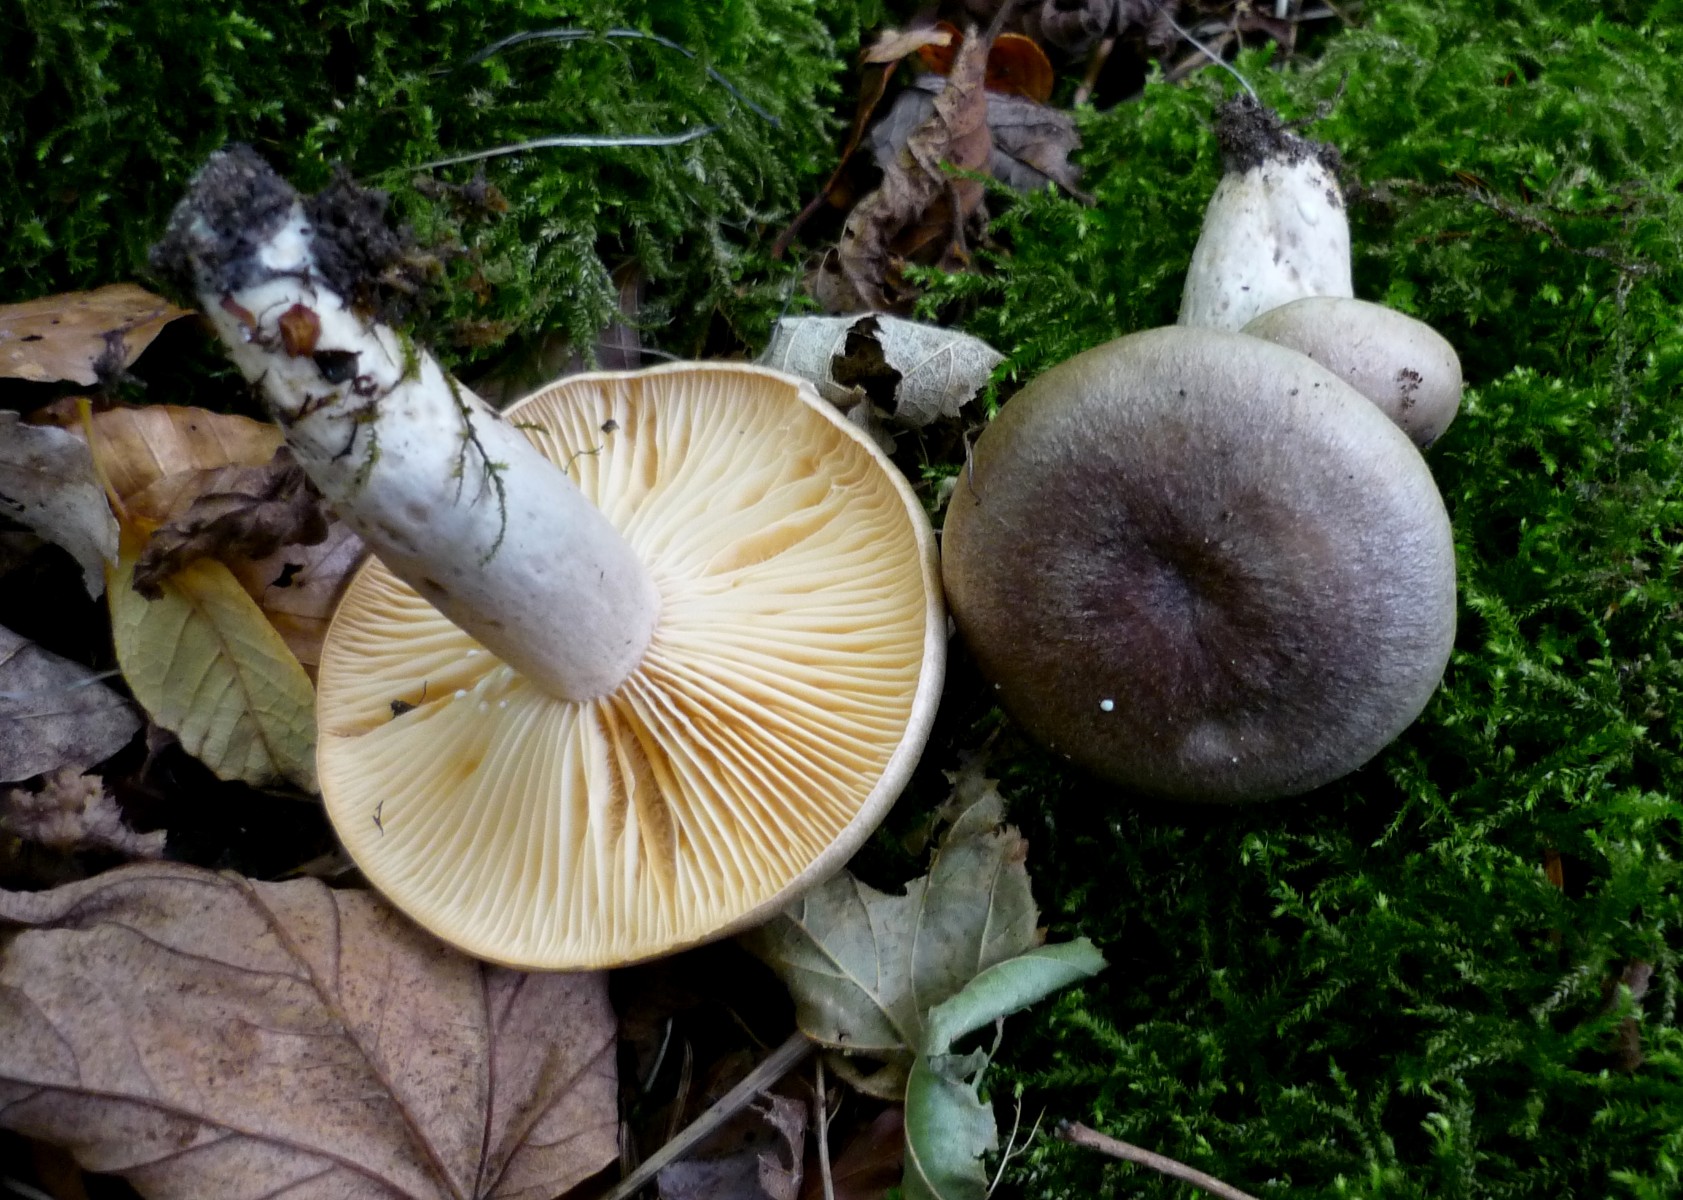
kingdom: Fungi
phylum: Basidiomycota
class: Agaricomycetes
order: Russulales
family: Russulaceae
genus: Lactarius
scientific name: Lactarius pyrogalus
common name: hassel-mælkehat
